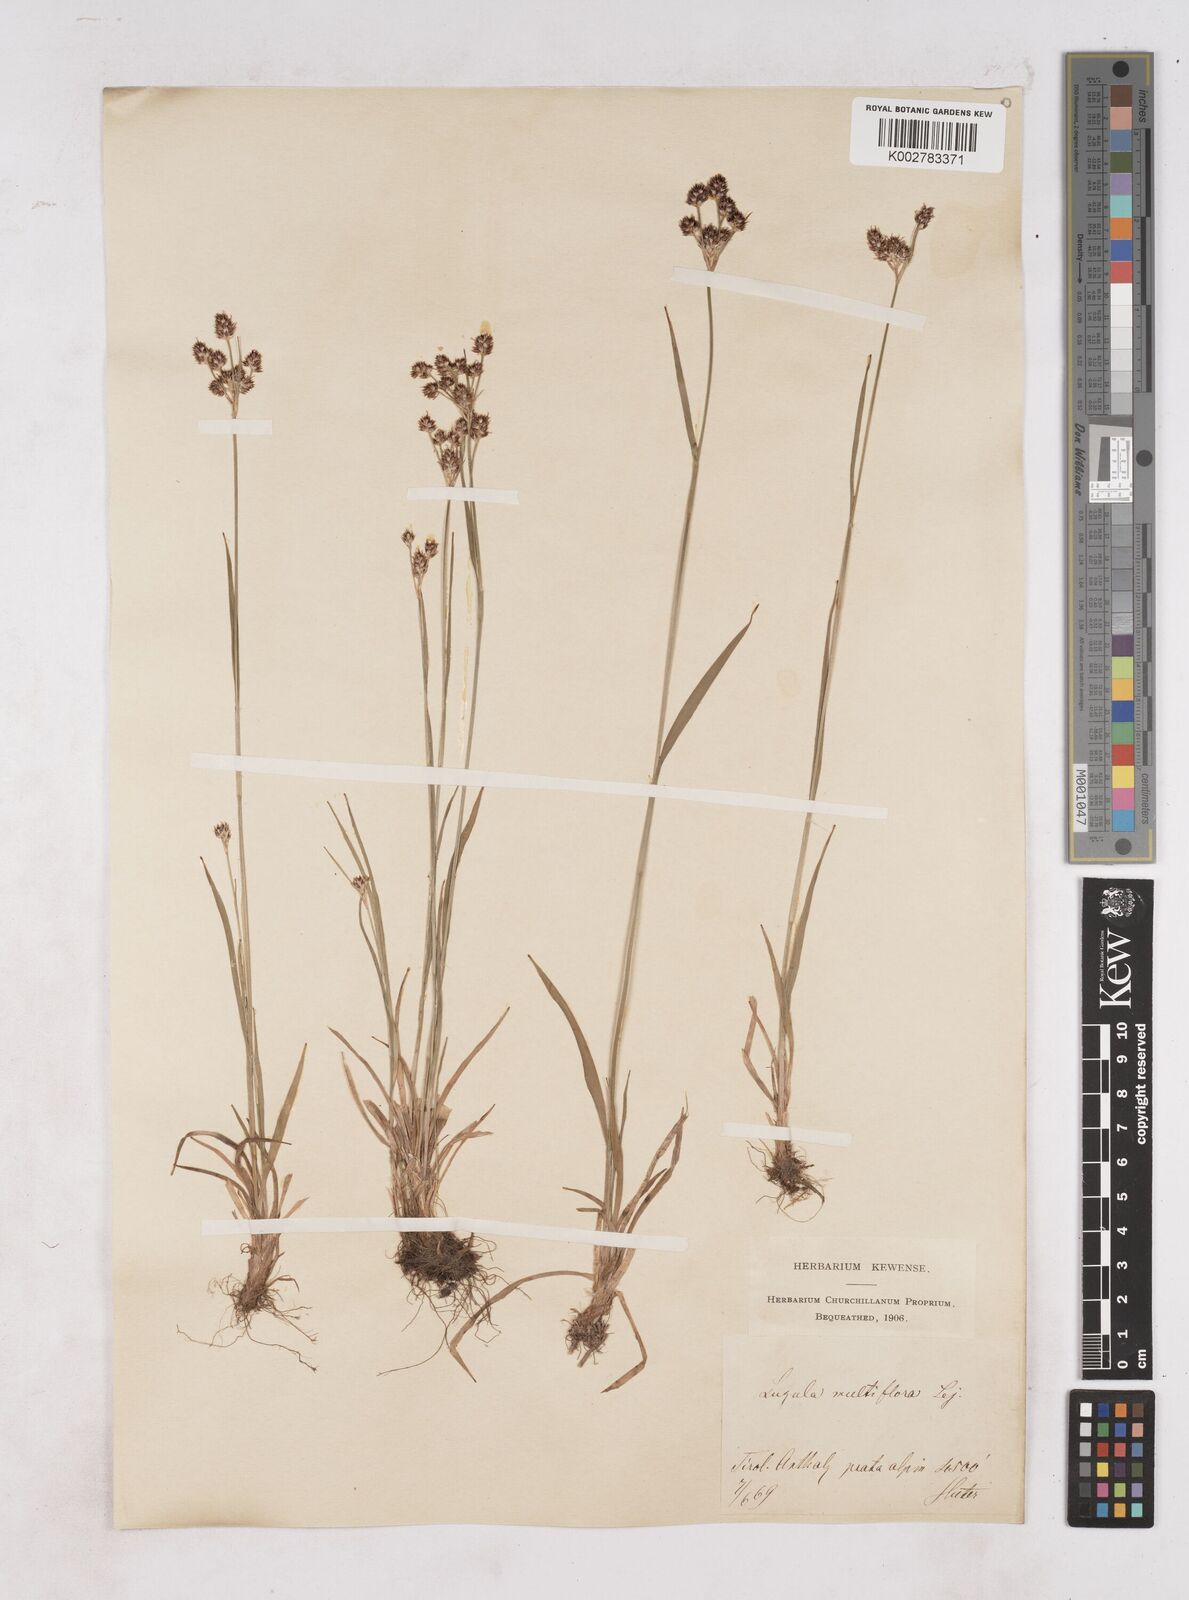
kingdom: Plantae
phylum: Tracheophyta
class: Liliopsida
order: Poales
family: Juncaceae
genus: Luzula
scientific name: Luzula multiflora
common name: Heath wood-rush
